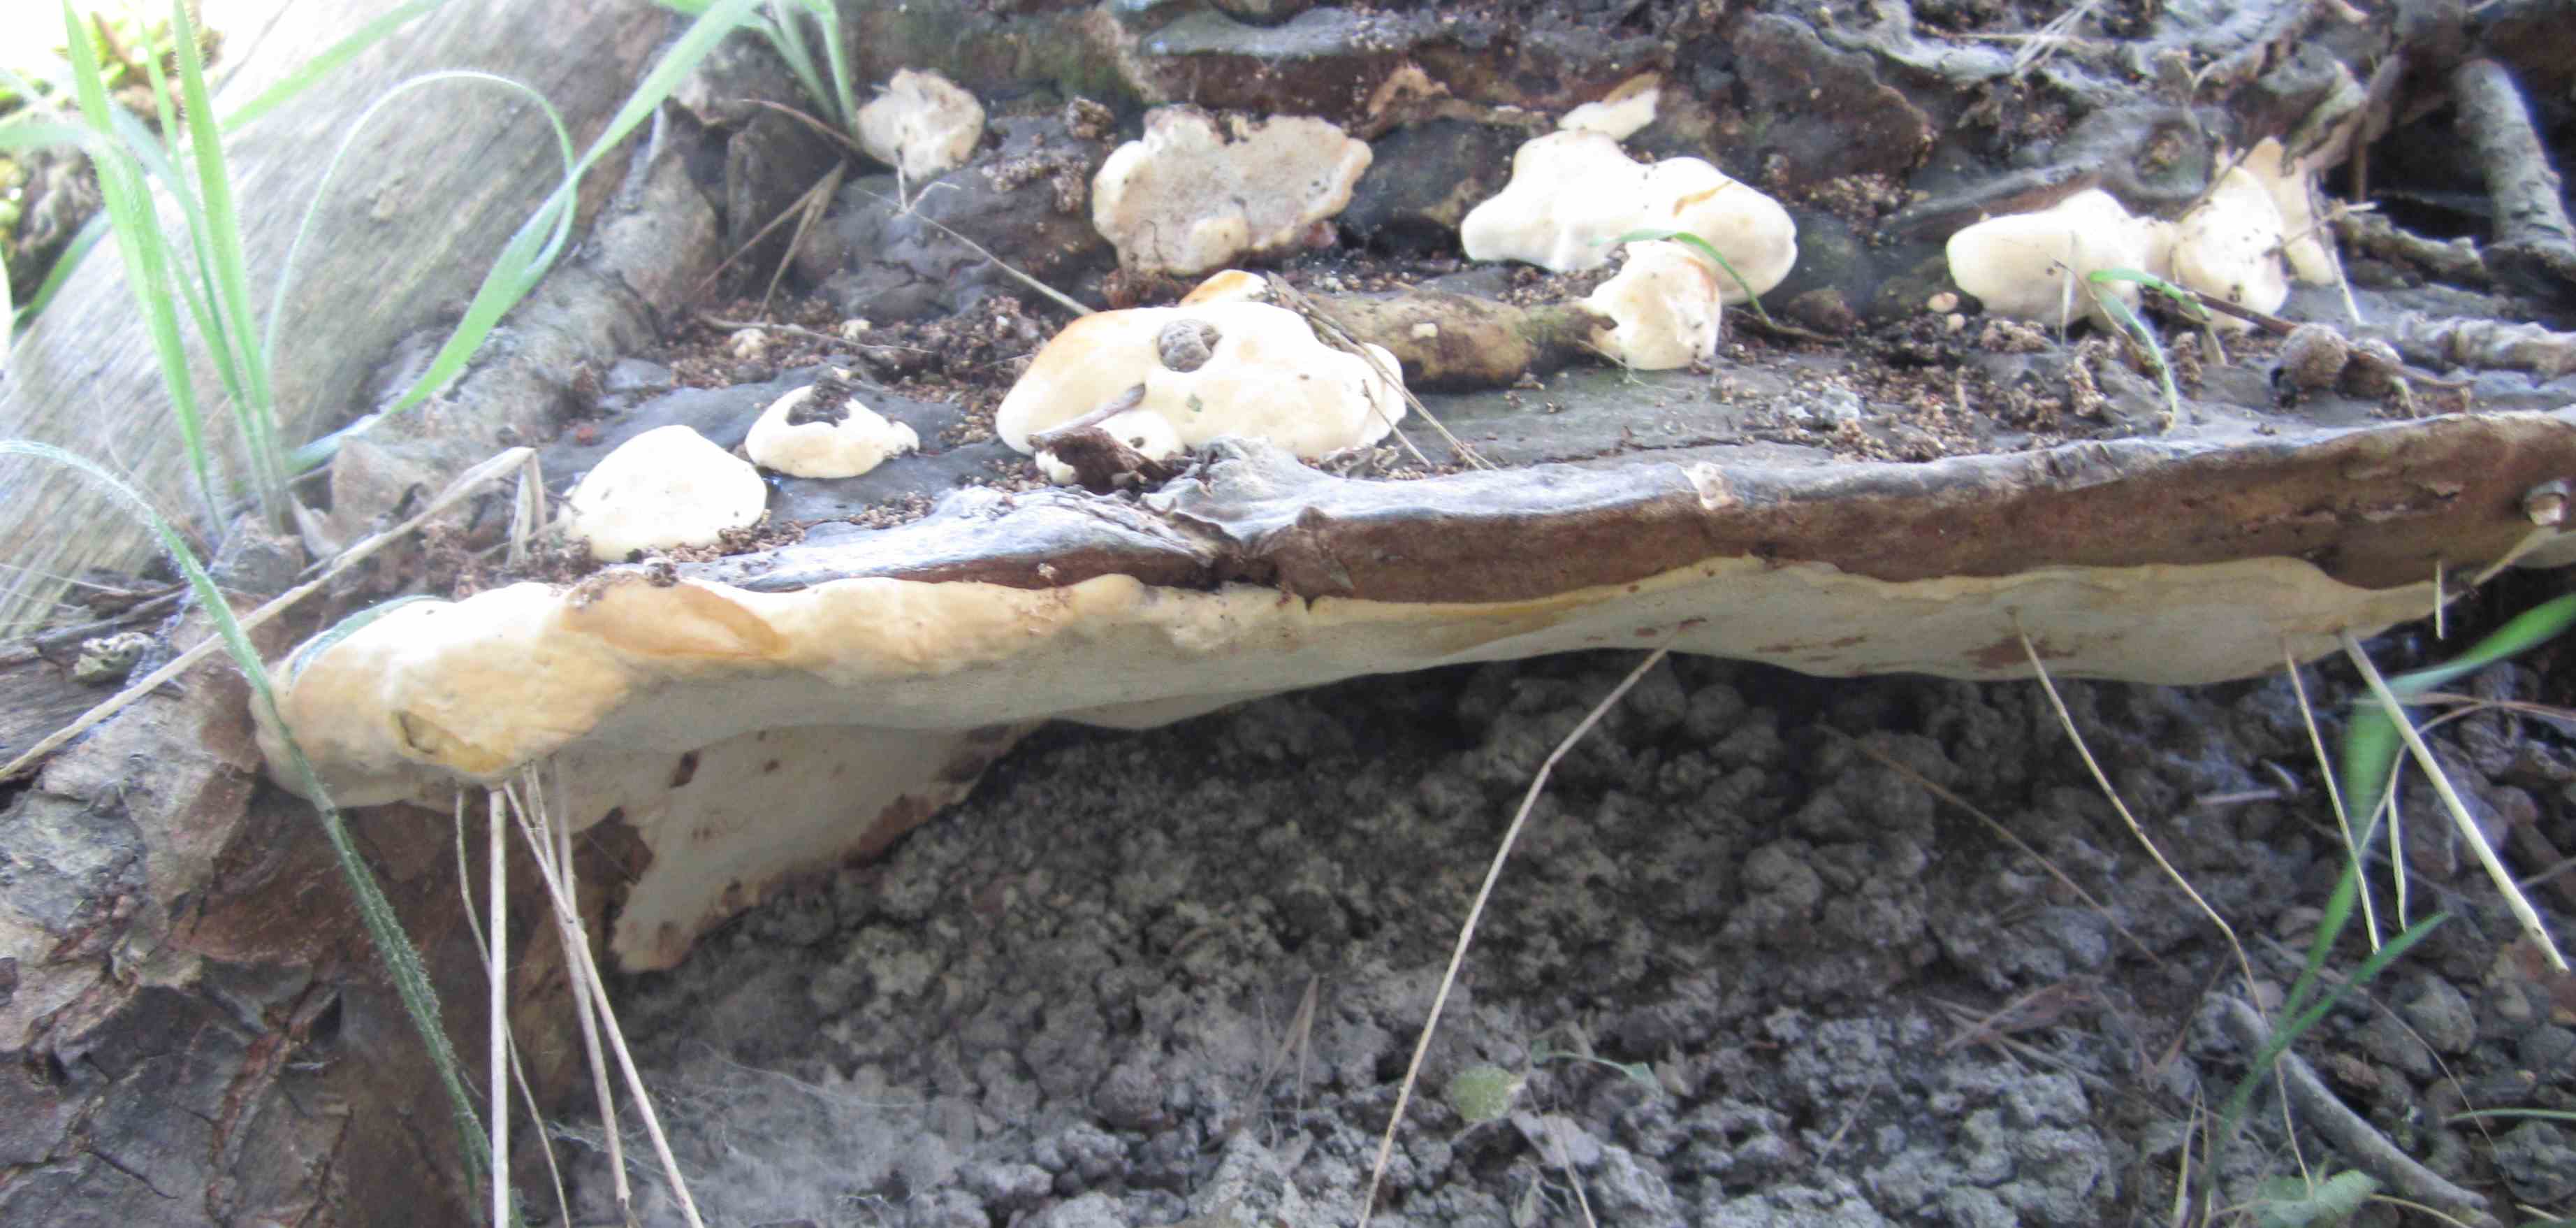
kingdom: Fungi
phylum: Basidiomycota
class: Agaricomycetes
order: Polyporales
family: Polyporaceae
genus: Vanderbylia
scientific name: Vanderbylia fraxinea
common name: stor kanelporesvamp
